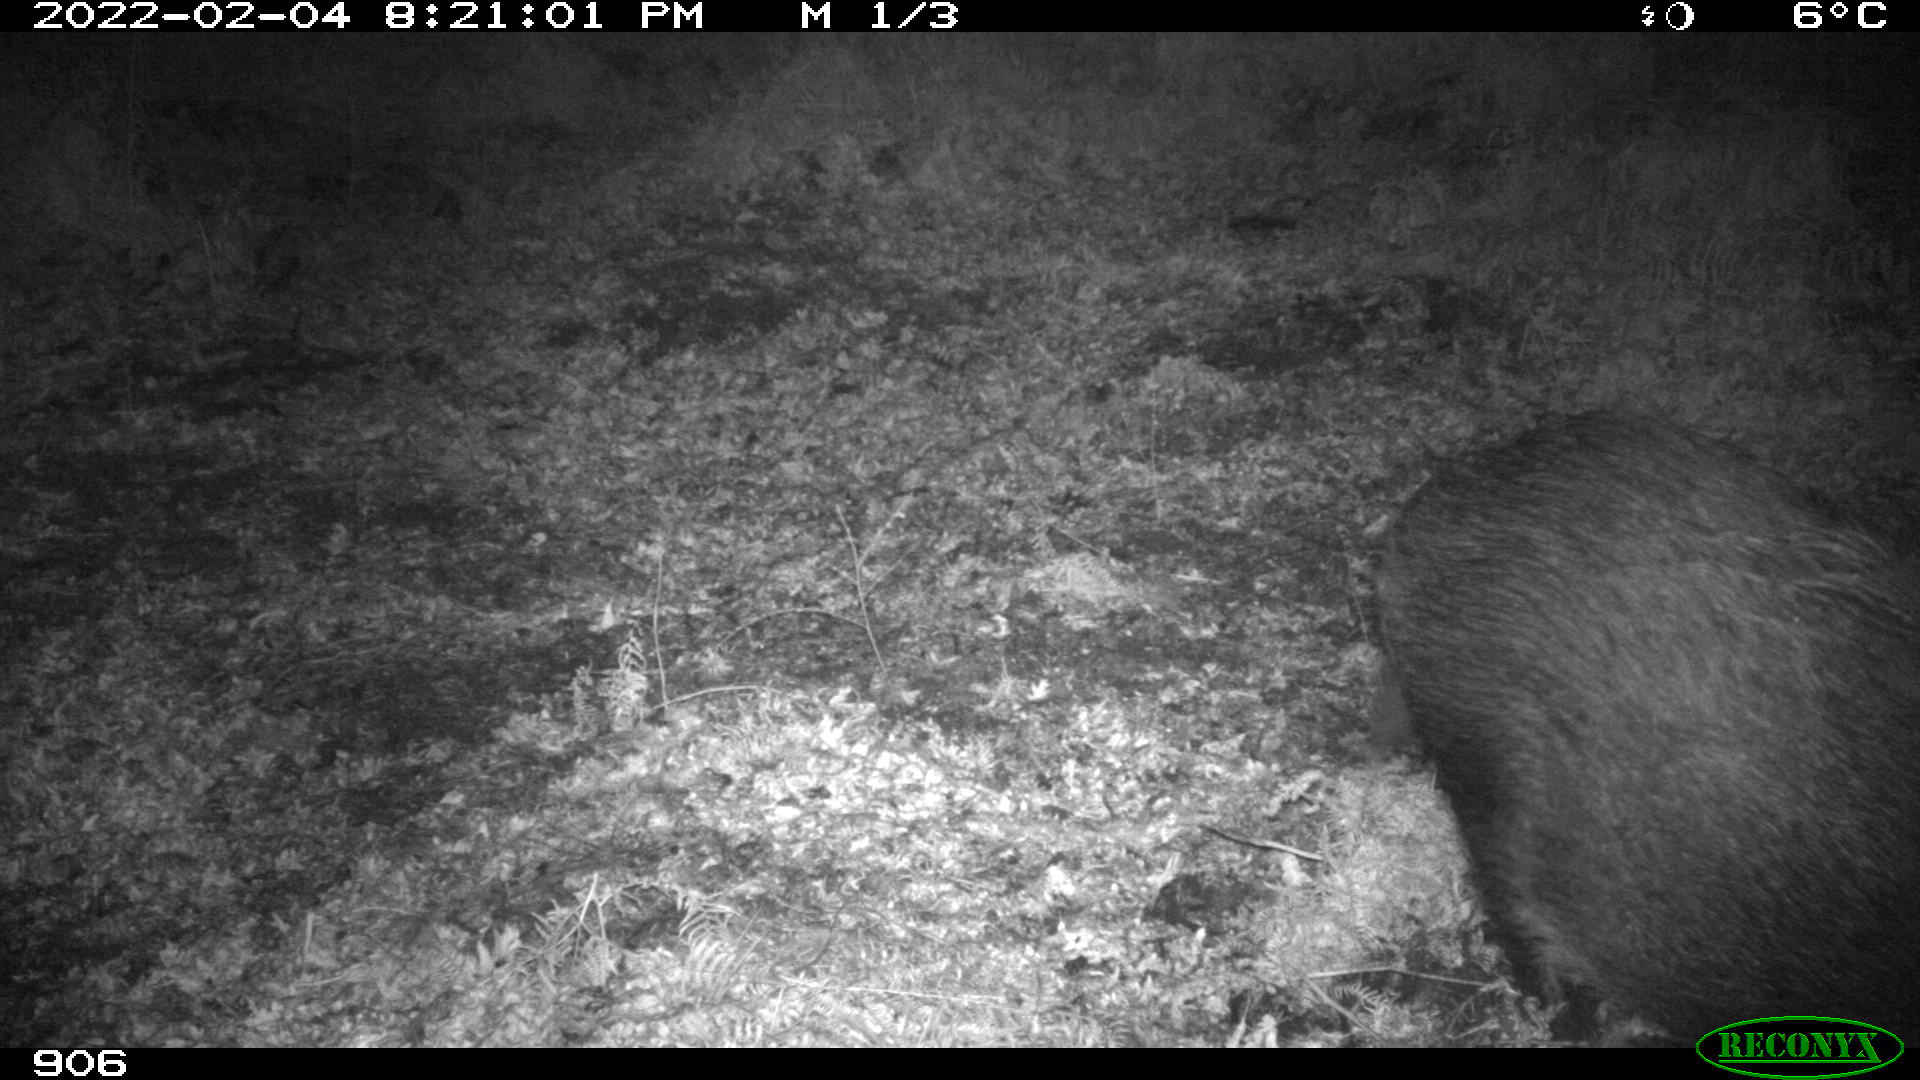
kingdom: Animalia
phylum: Chordata
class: Mammalia
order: Artiodactyla
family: Suidae
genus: Sus
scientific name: Sus scrofa
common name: Wild boar
